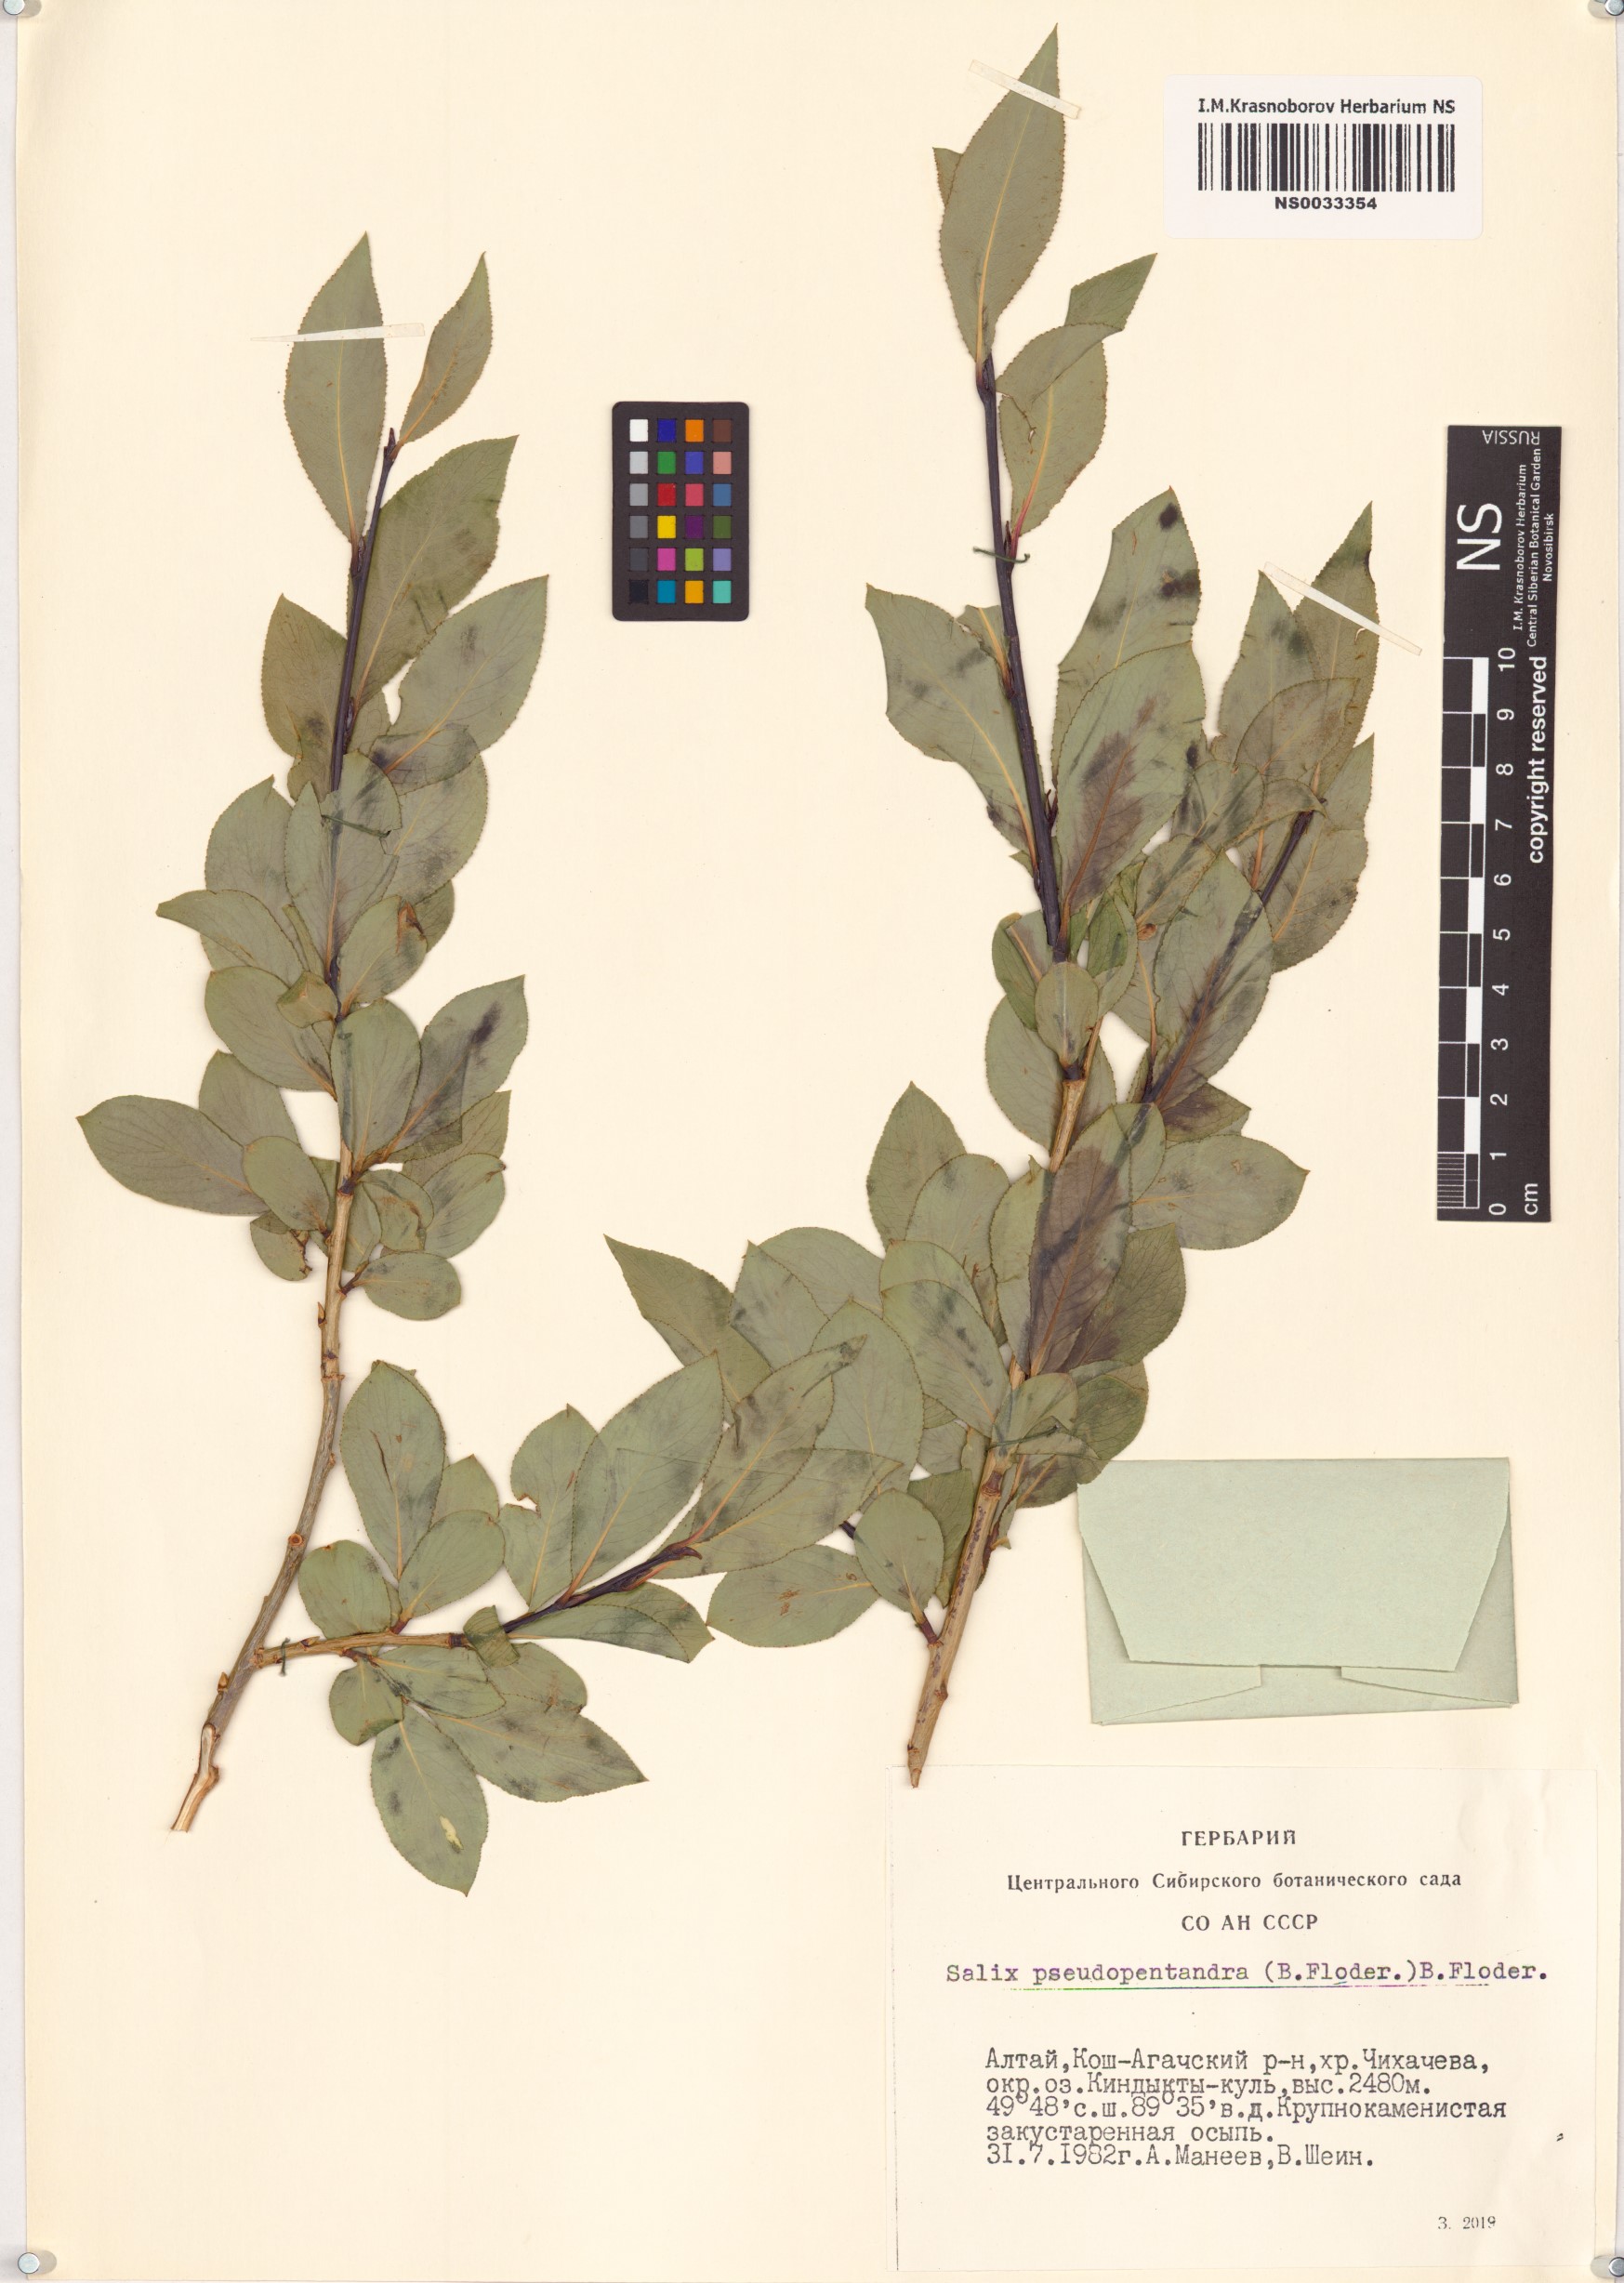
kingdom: Plantae
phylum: Tracheophyta
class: Magnoliopsida
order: Malpighiales
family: Salicaceae
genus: Salix
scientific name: Salix pseudopentandra
